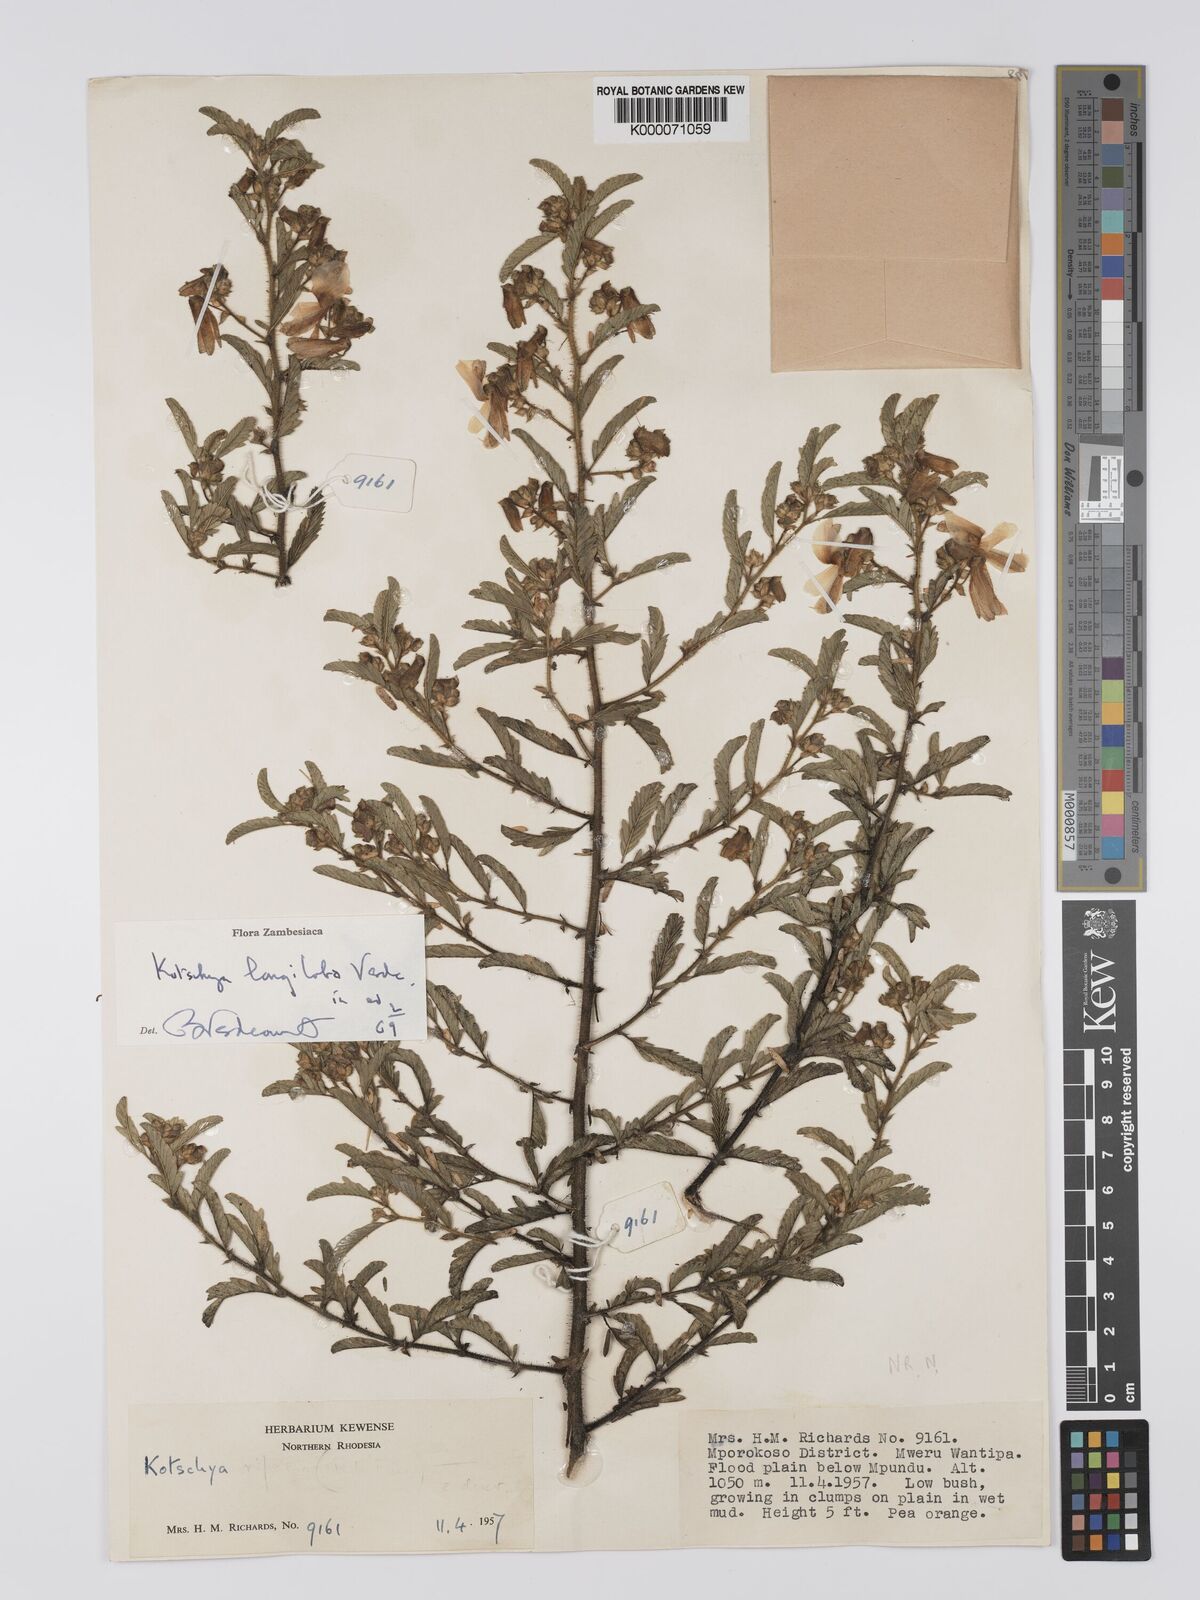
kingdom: Plantae
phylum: Tracheophyta
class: Magnoliopsida
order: Fabales
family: Fabaceae
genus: Kotschya
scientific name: Kotschya longiloba
